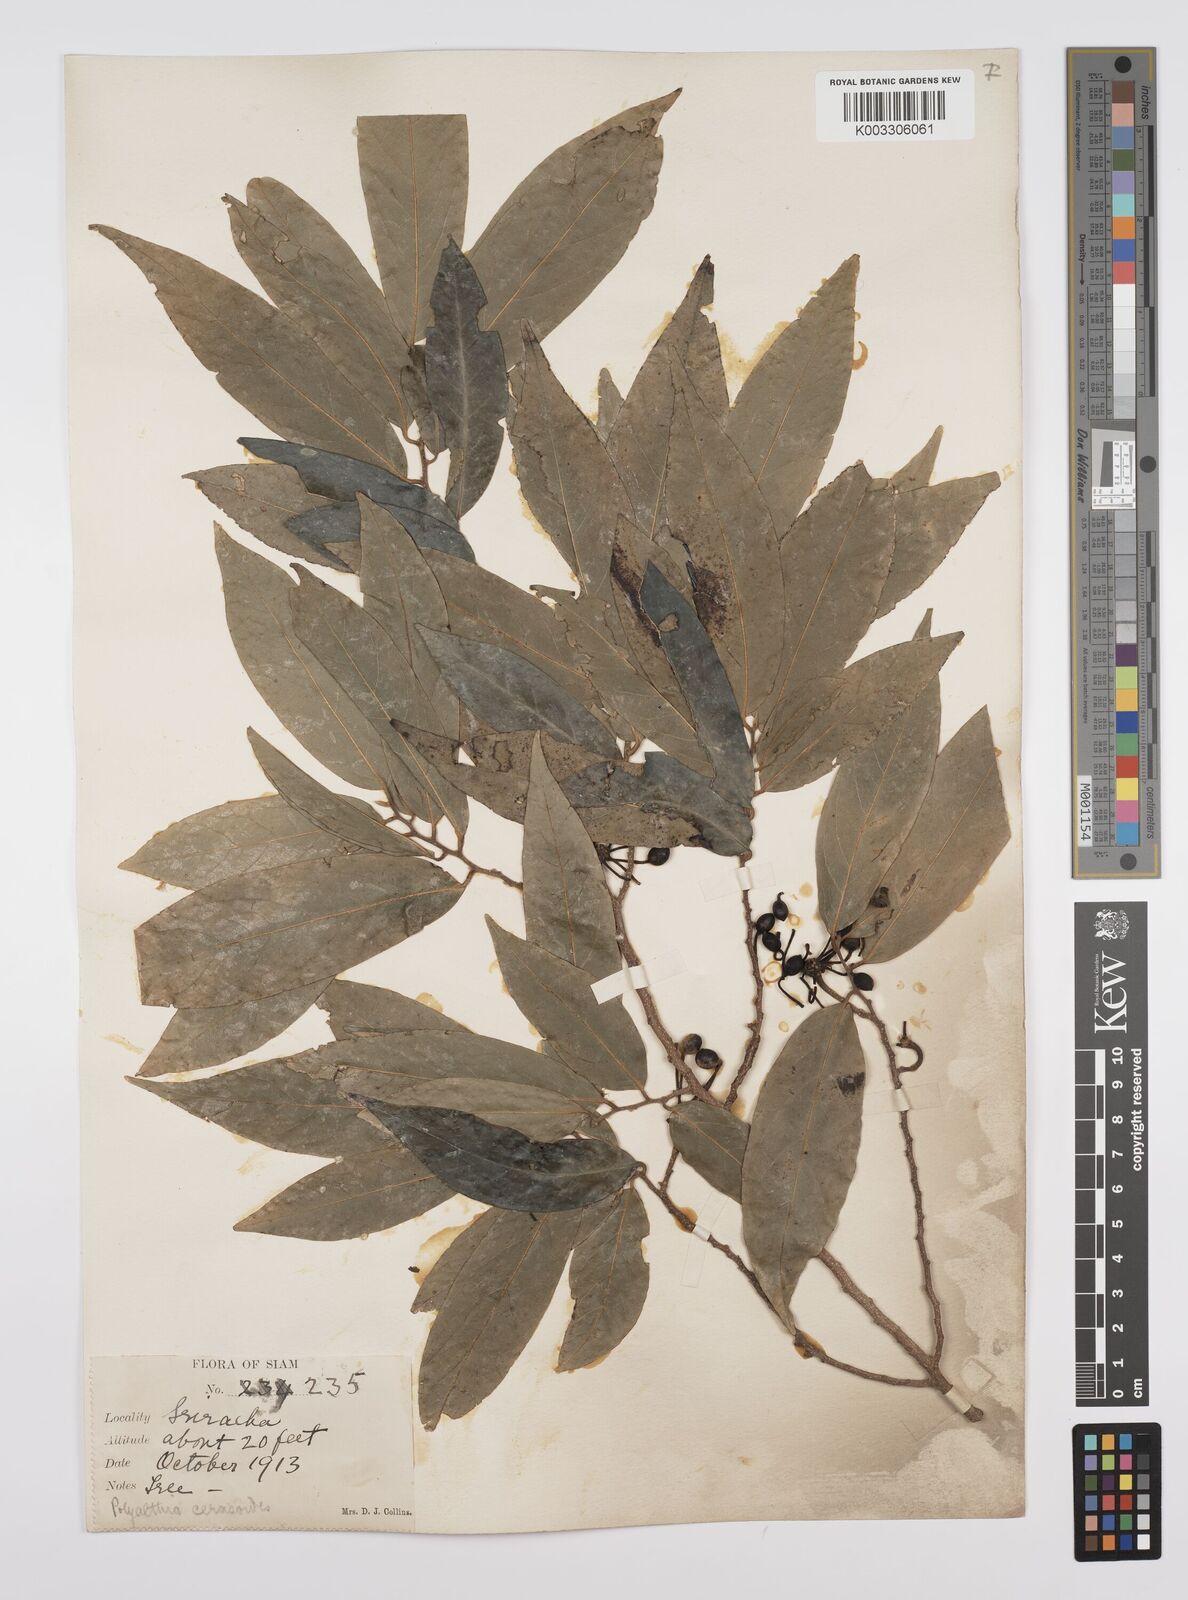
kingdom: Plantae
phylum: Tracheophyta
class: Magnoliopsida
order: Magnoliales
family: Annonaceae
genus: Hubera
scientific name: Hubera cerasoides
